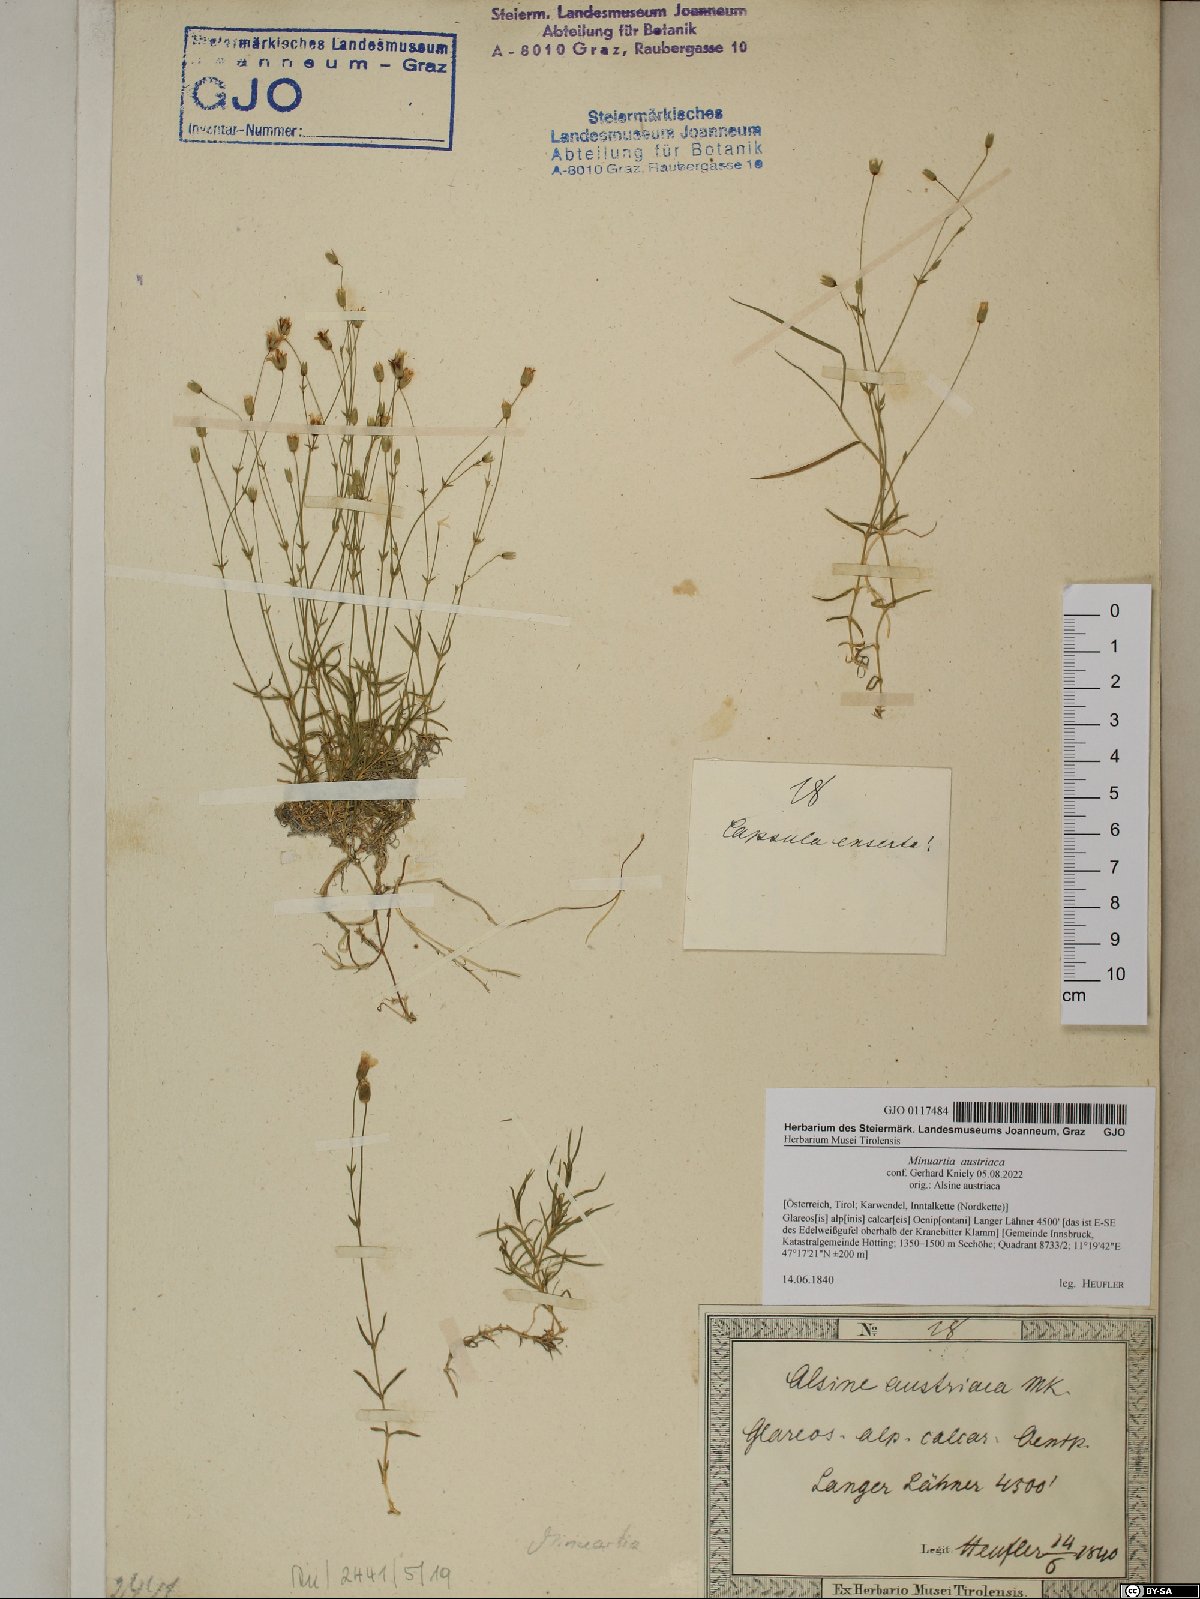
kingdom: Plantae
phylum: Tracheophyta
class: Magnoliopsida
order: Caryophyllales
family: Caryophyllaceae
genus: Sabulina
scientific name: Sabulina austriaca
